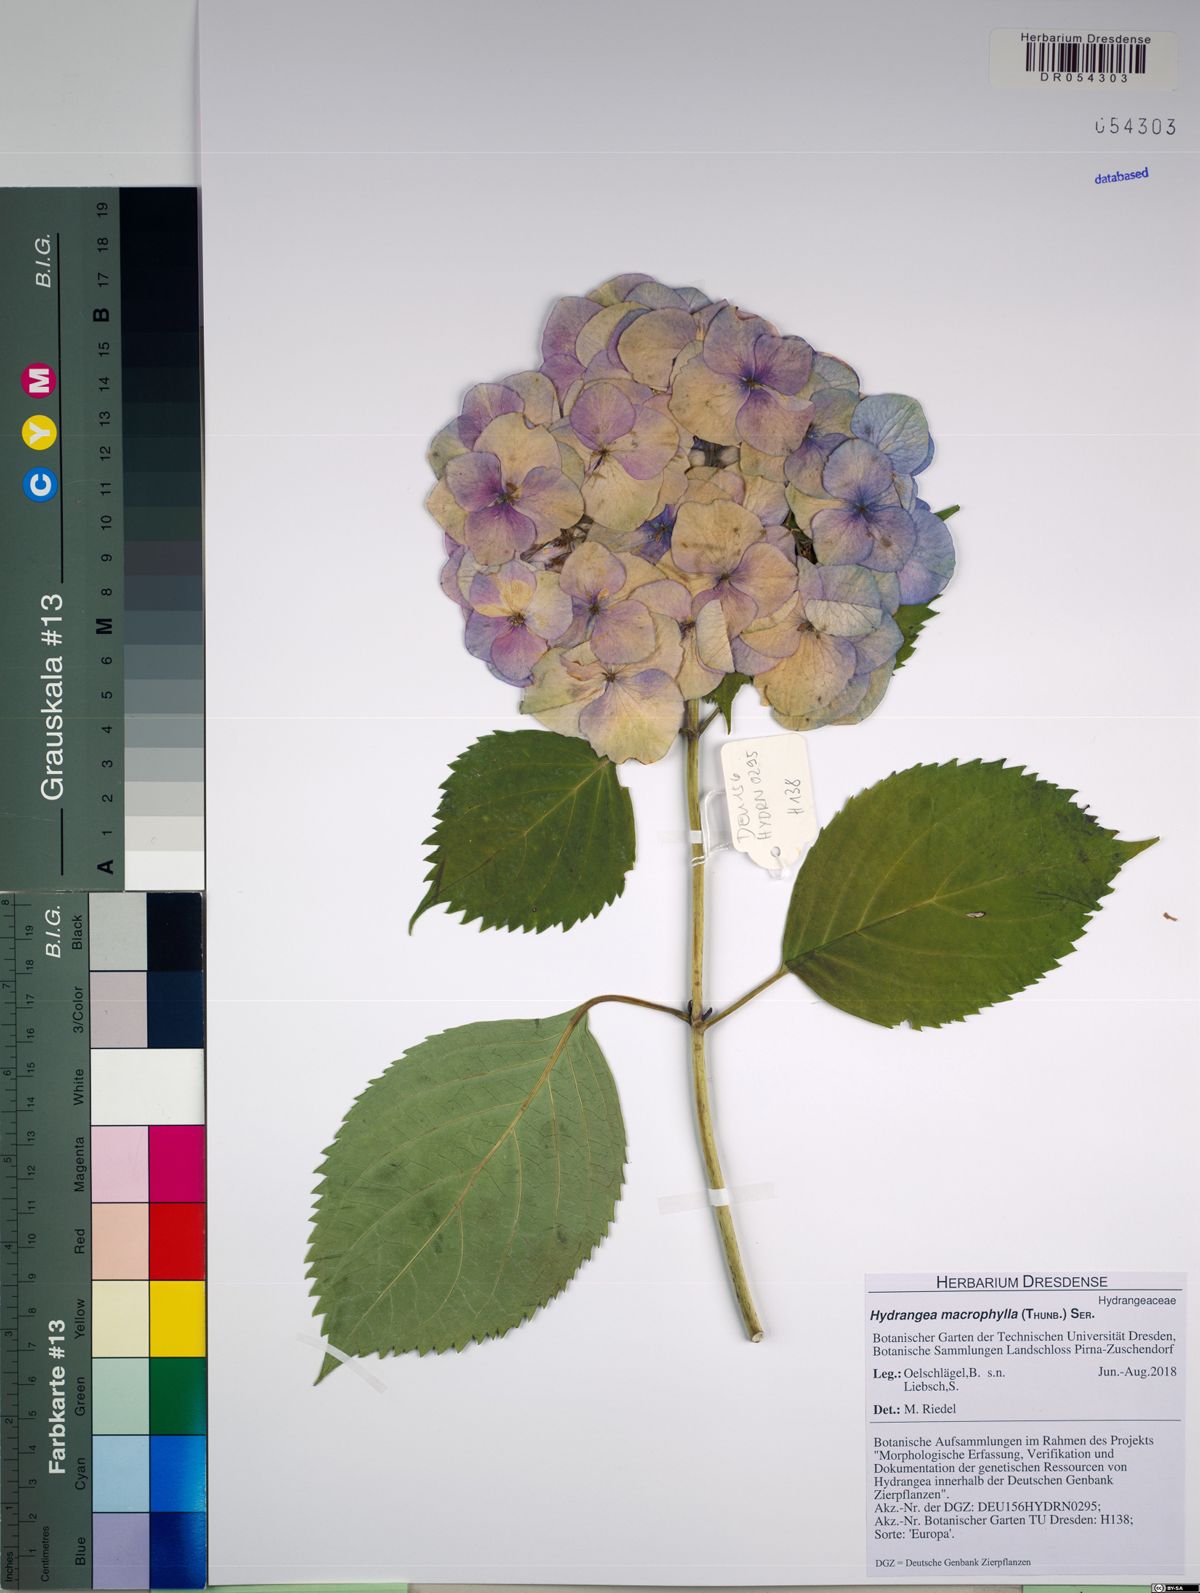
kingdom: Plantae
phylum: Tracheophyta
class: Magnoliopsida
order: Cornales
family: Hydrangeaceae
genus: Hydrangea
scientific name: Hydrangea macrophylla
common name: Hydrangea
